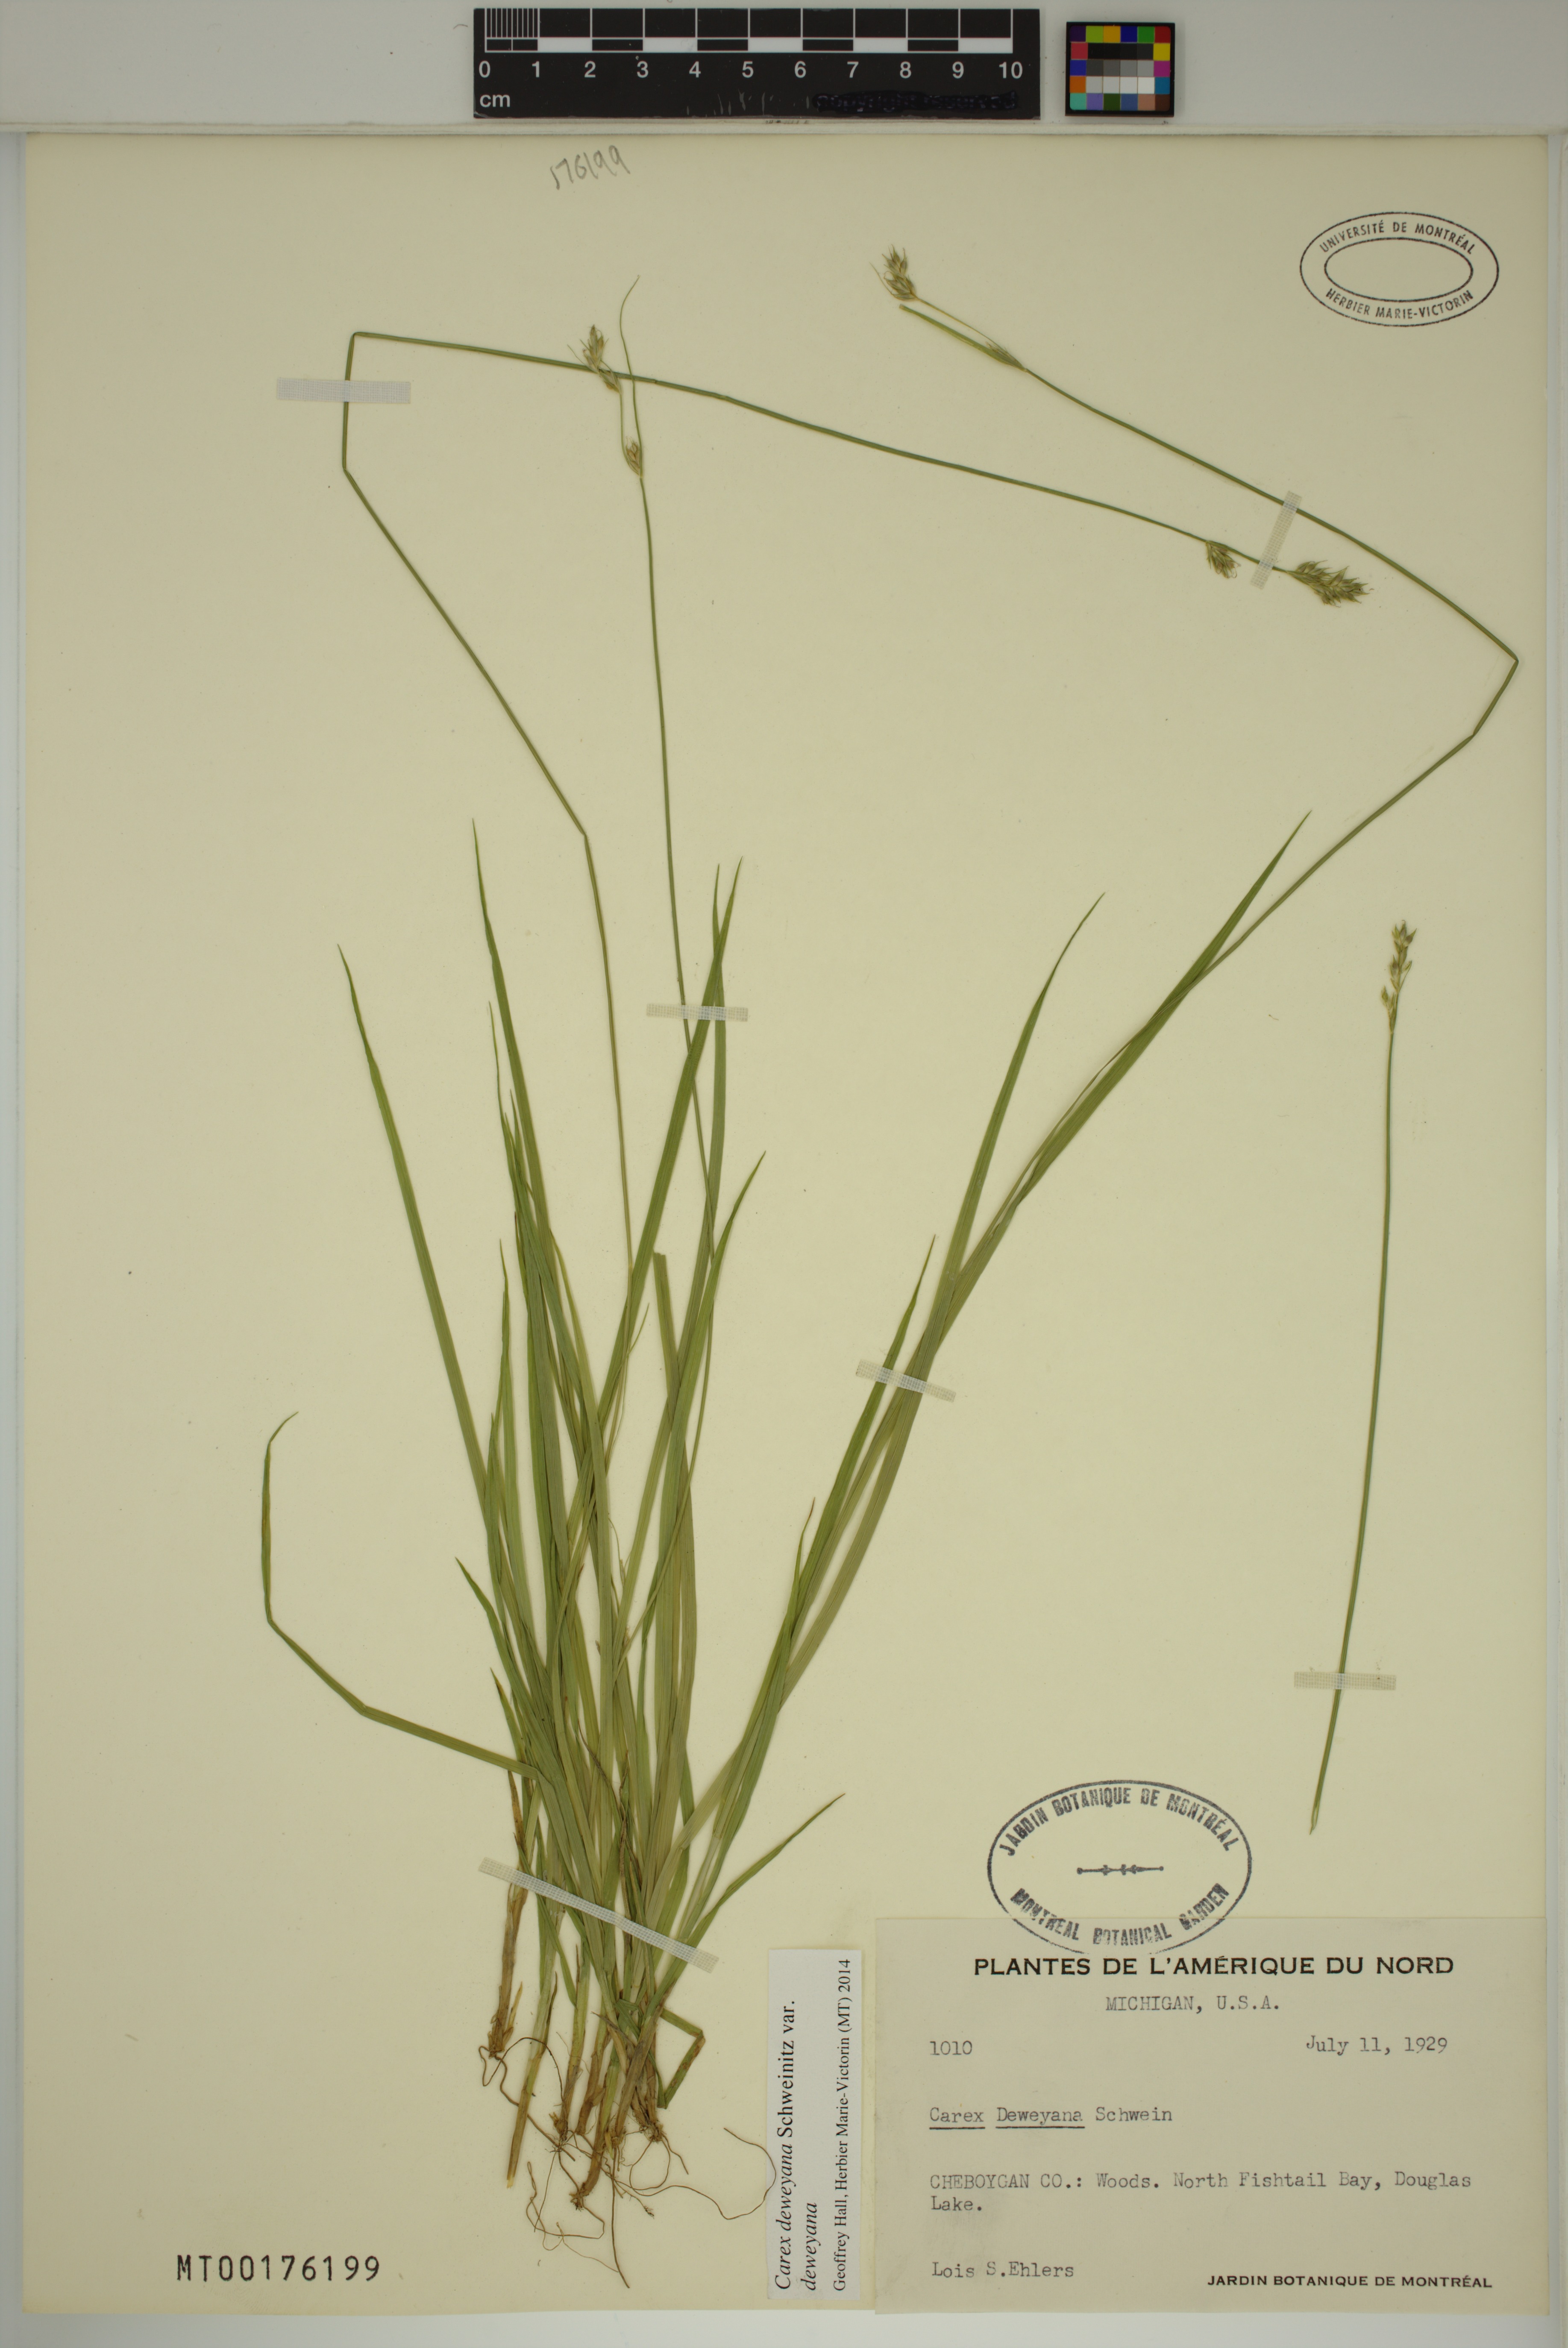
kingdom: Plantae
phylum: Tracheophyta
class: Liliopsida
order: Poales
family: Cyperaceae
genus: Carex
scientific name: Carex deweyana
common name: Dewey's sedge
